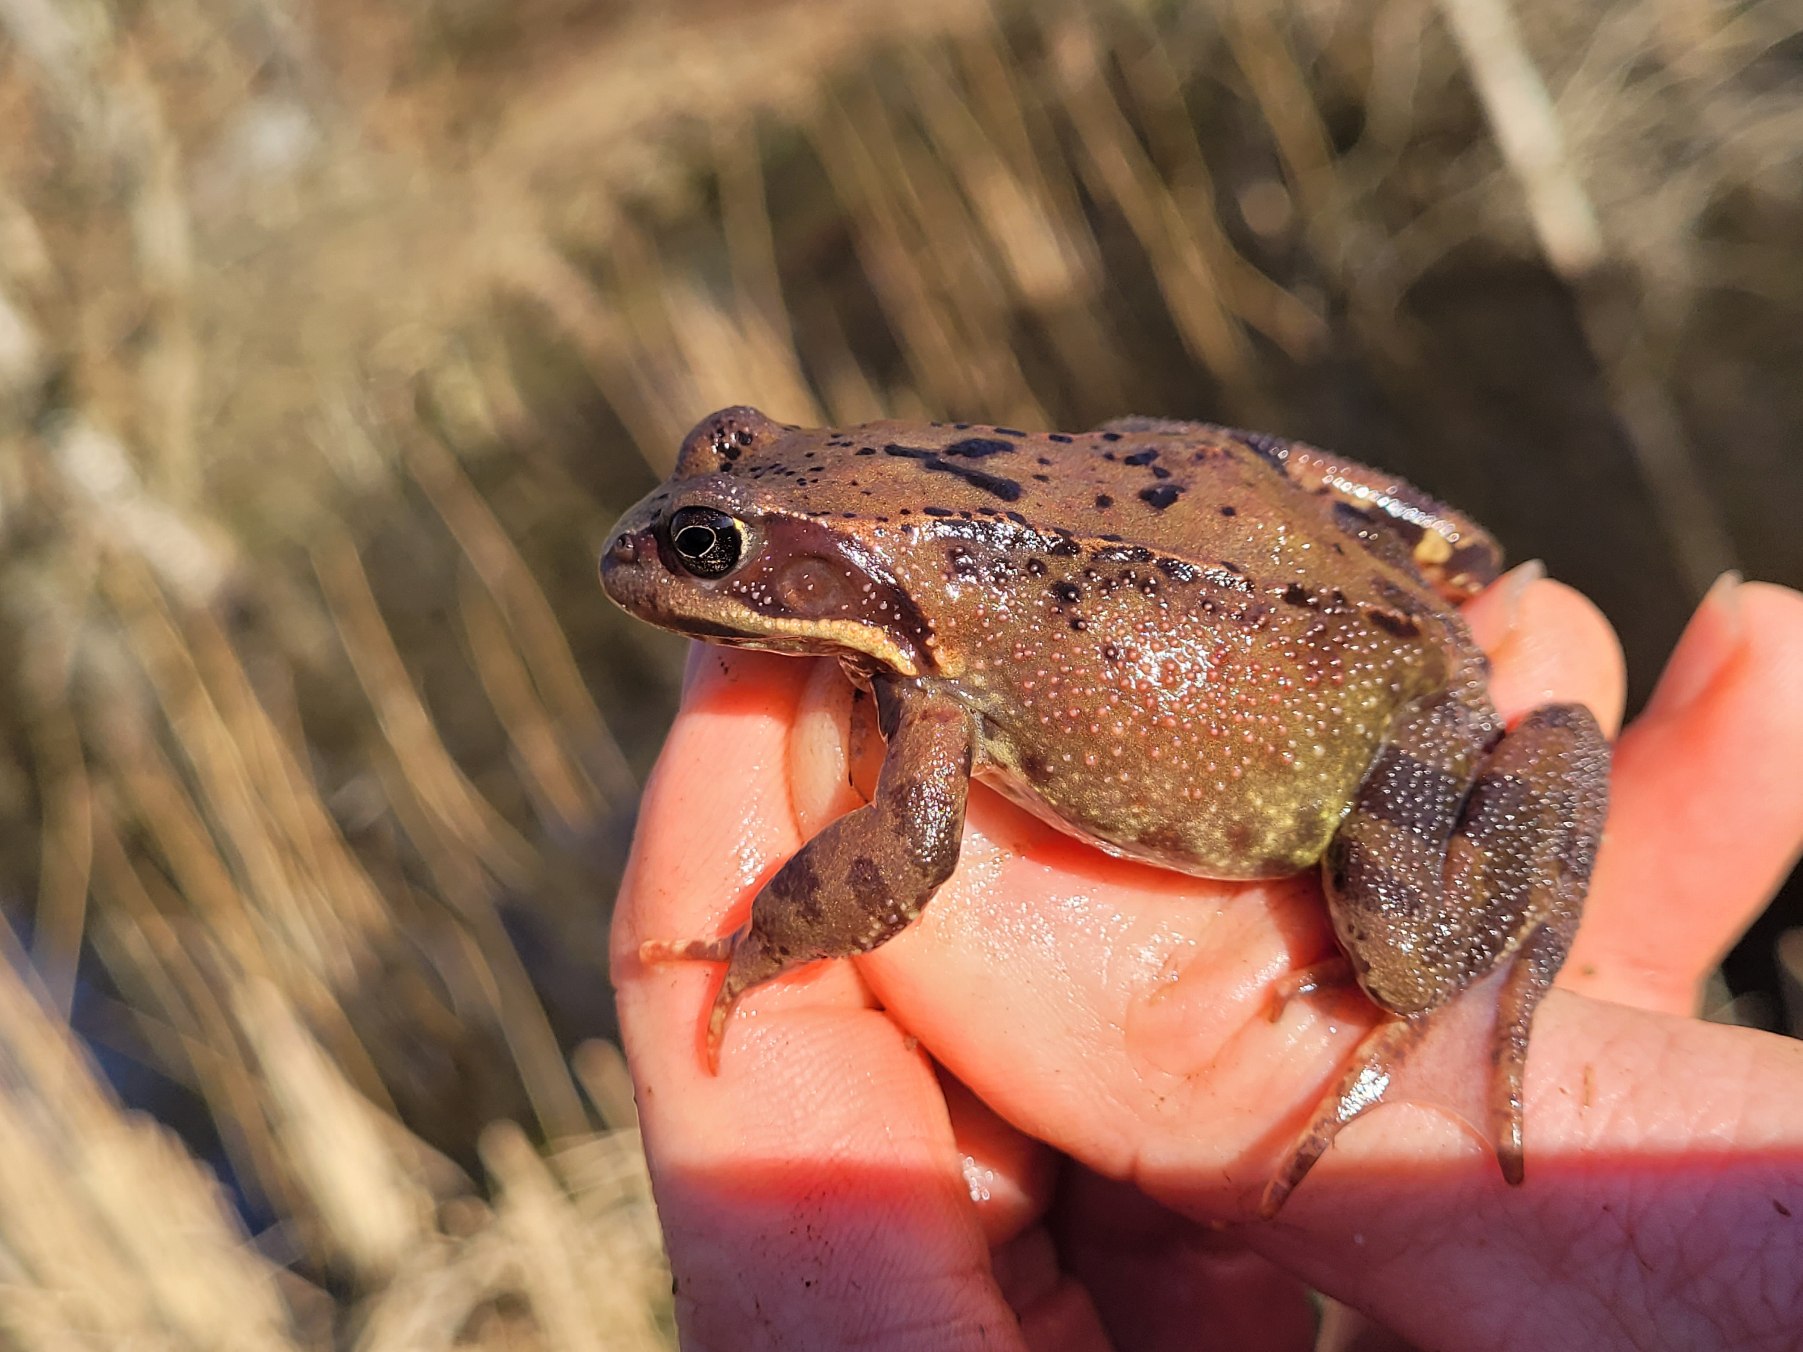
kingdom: Animalia
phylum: Chordata
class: Amphibia
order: Anura
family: Ranidae
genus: Rana
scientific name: Rana temporaria
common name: Butsnudet frø
